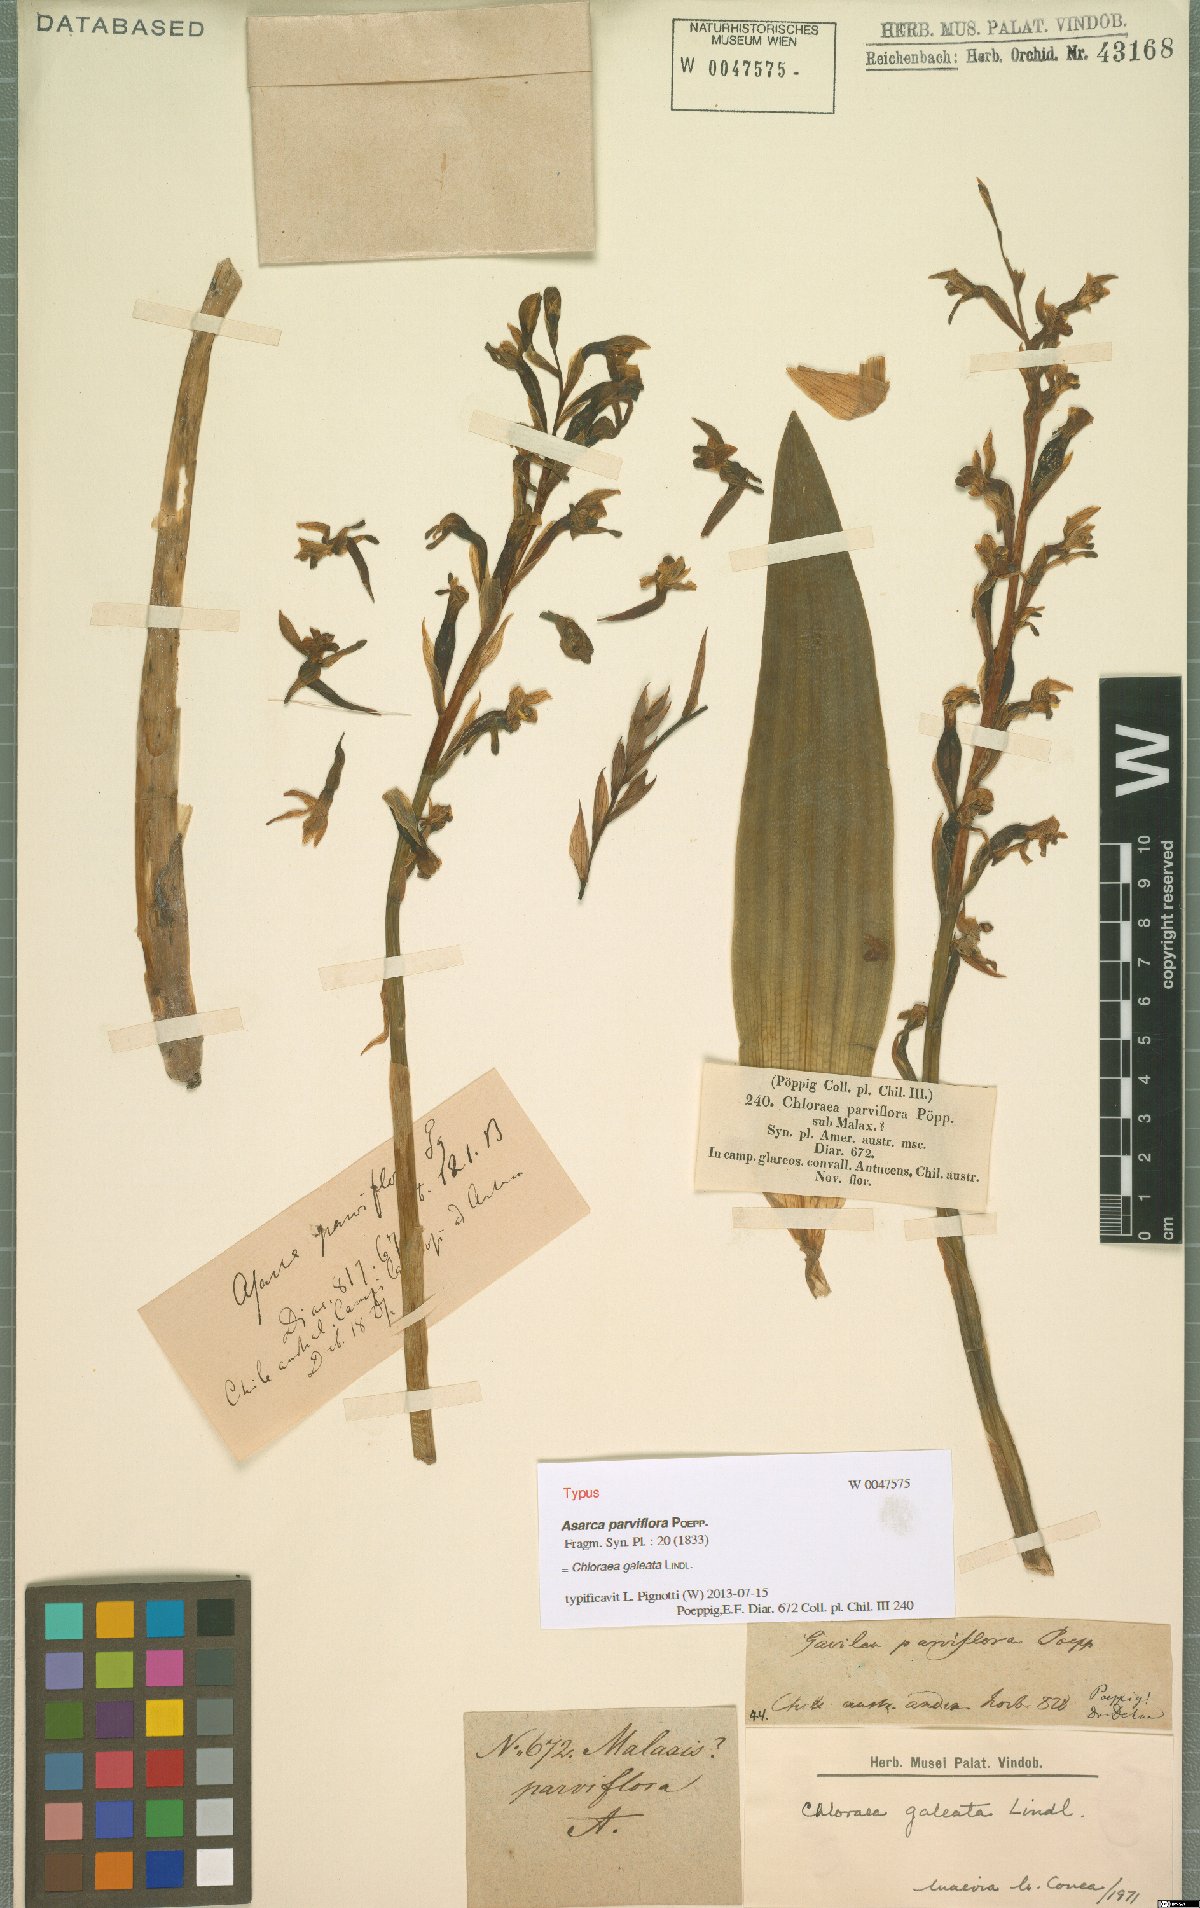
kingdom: Plantae
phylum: Tracheophyta
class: Liliopsida
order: Asparagales
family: Orchidaceae
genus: Chloraea
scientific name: Chloraea galeata
